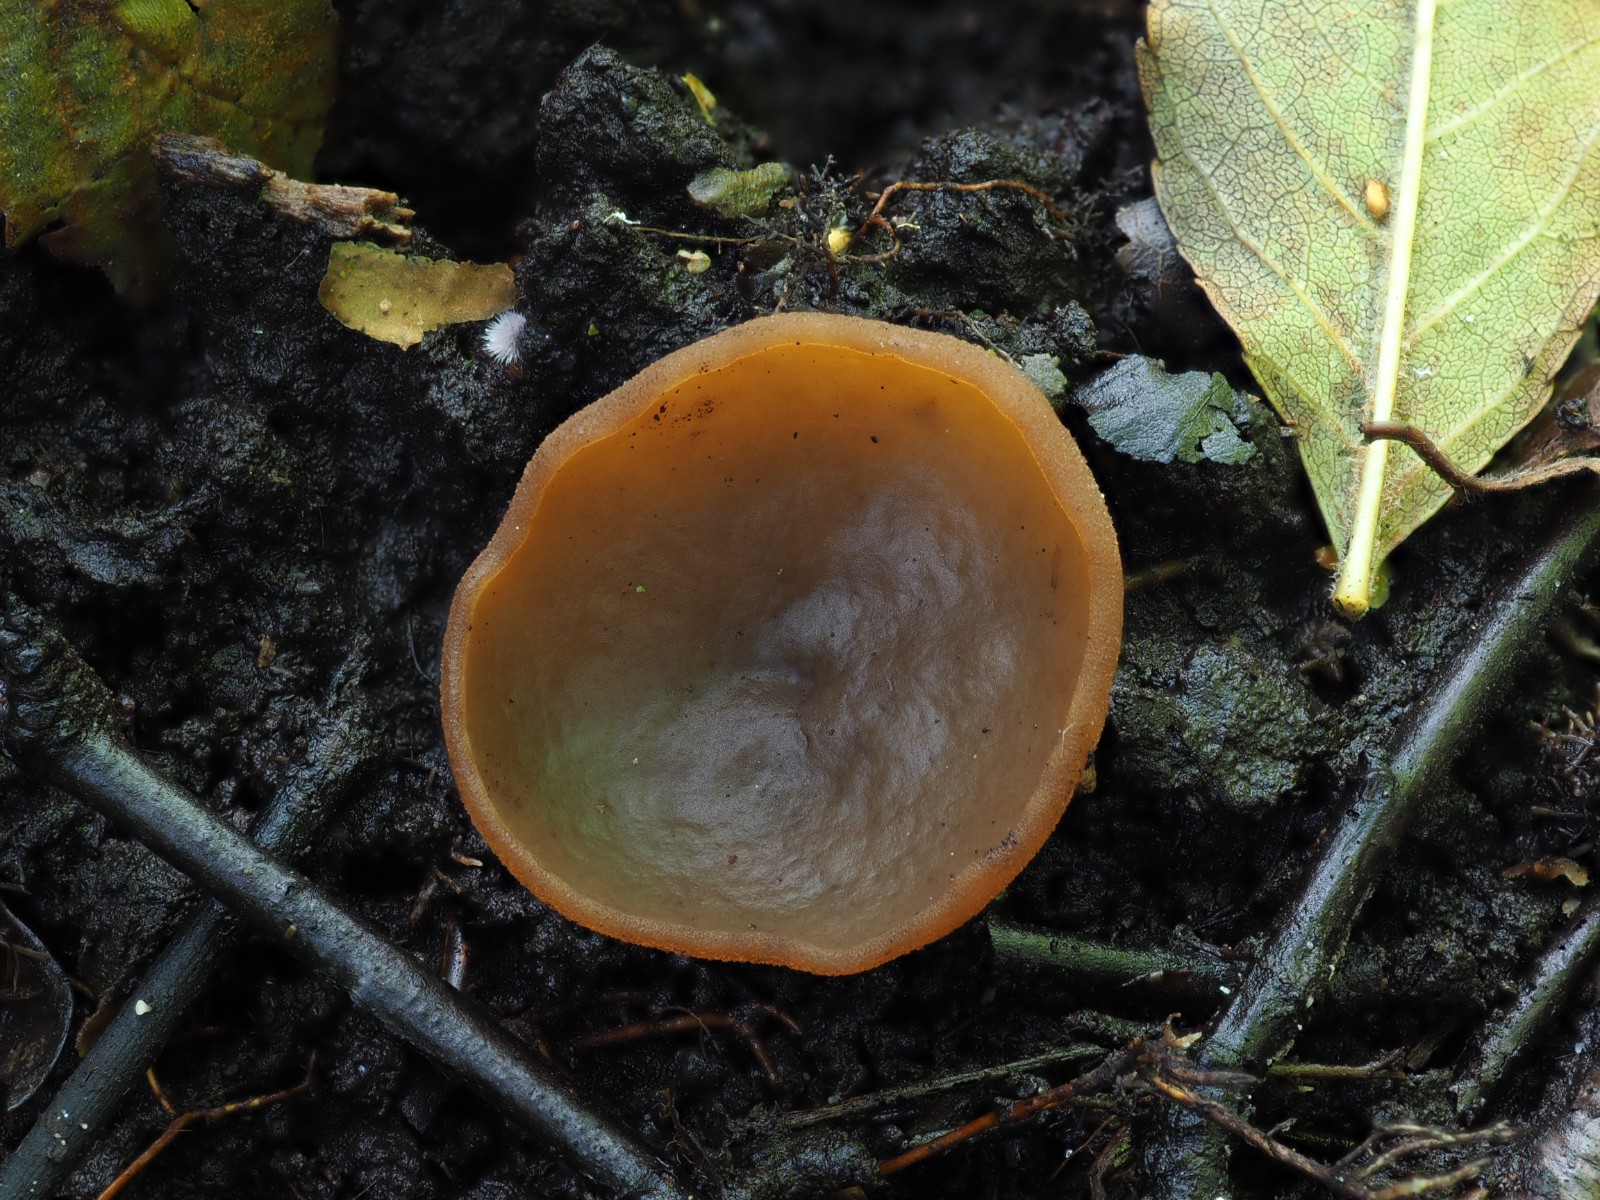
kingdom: Fungi
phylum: Ascomycota
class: Pezizomycetes
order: Pezizales
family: Pezizaceae
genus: Legaliana
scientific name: Legaliana limnaea
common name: mose-bægersvamp
